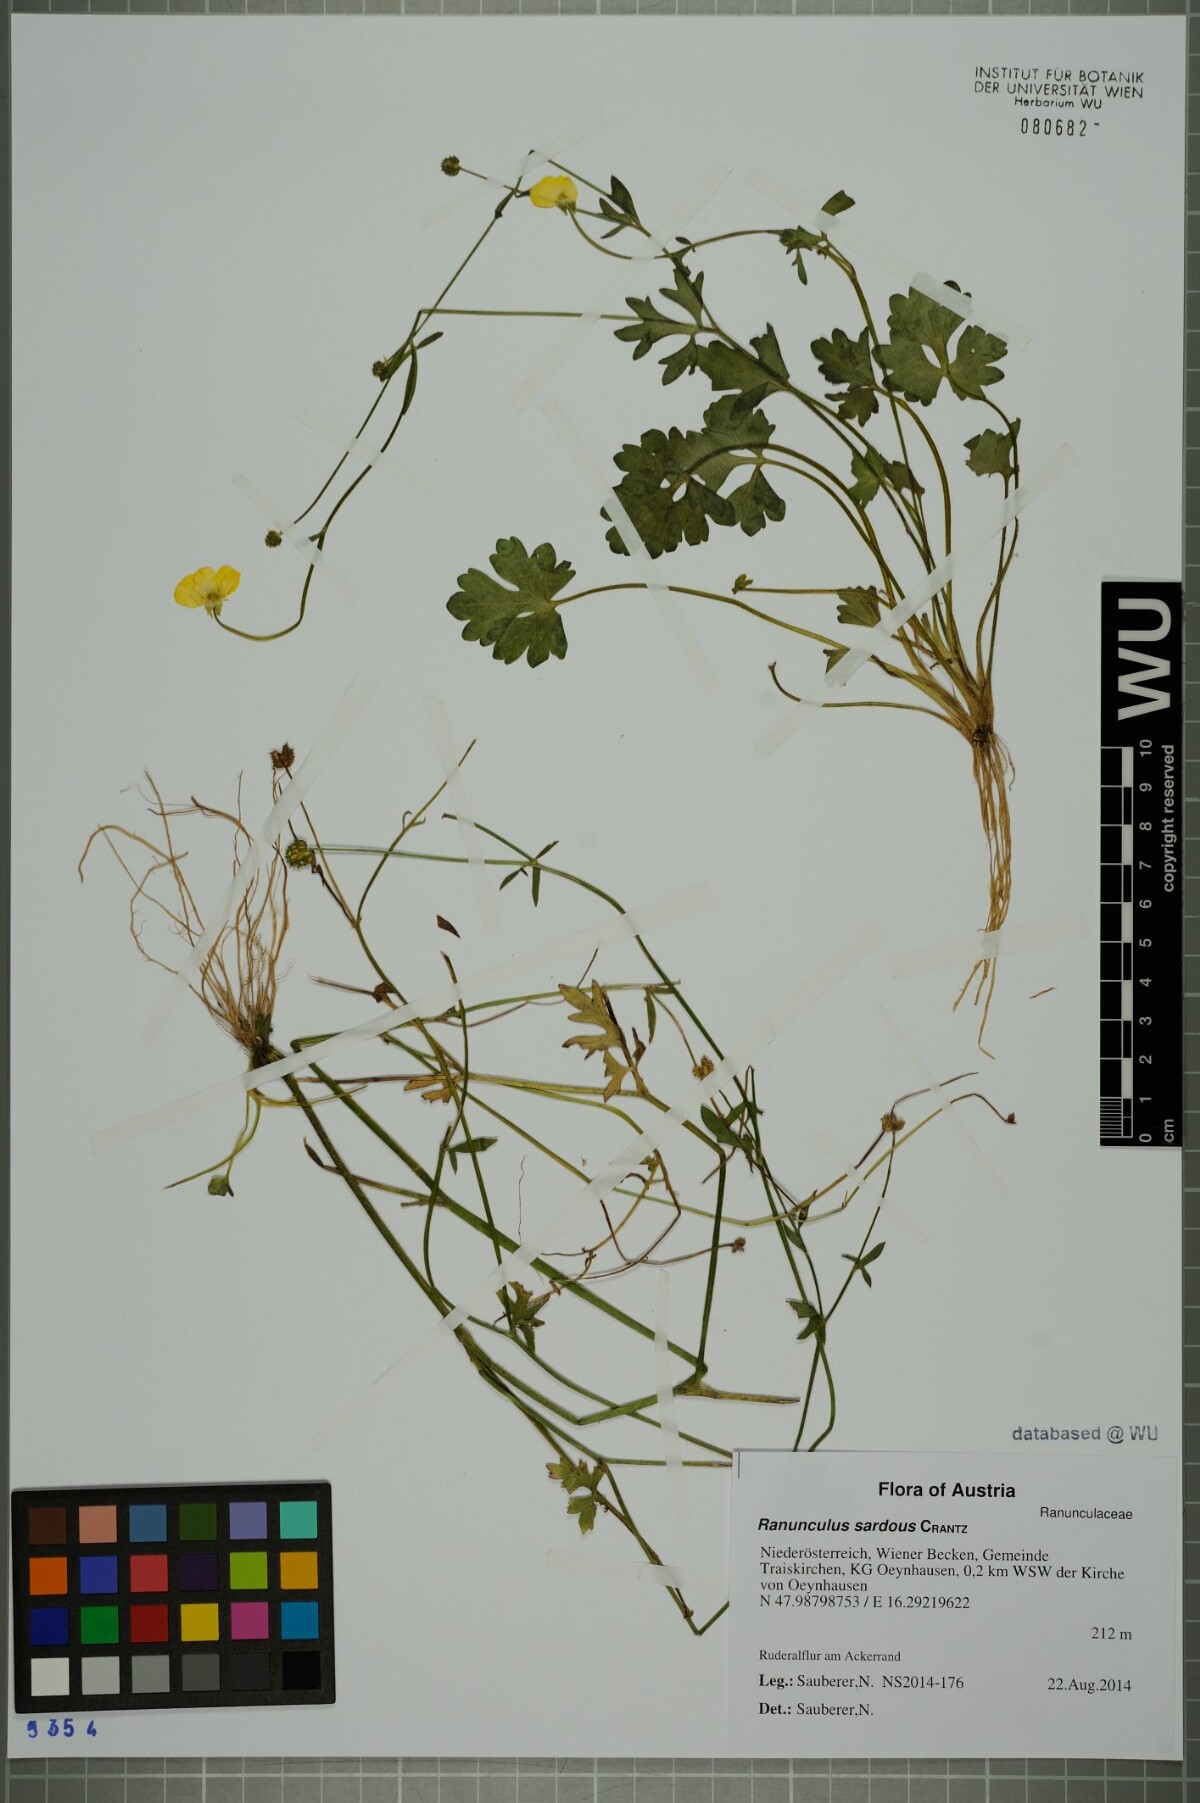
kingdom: Plantae
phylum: Tracheophyta
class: Magnoliopsida
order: Ranunculales
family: Ranunculaceae
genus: Ranunculus
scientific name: Ranunculus sardous
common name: Hairy buttercup
